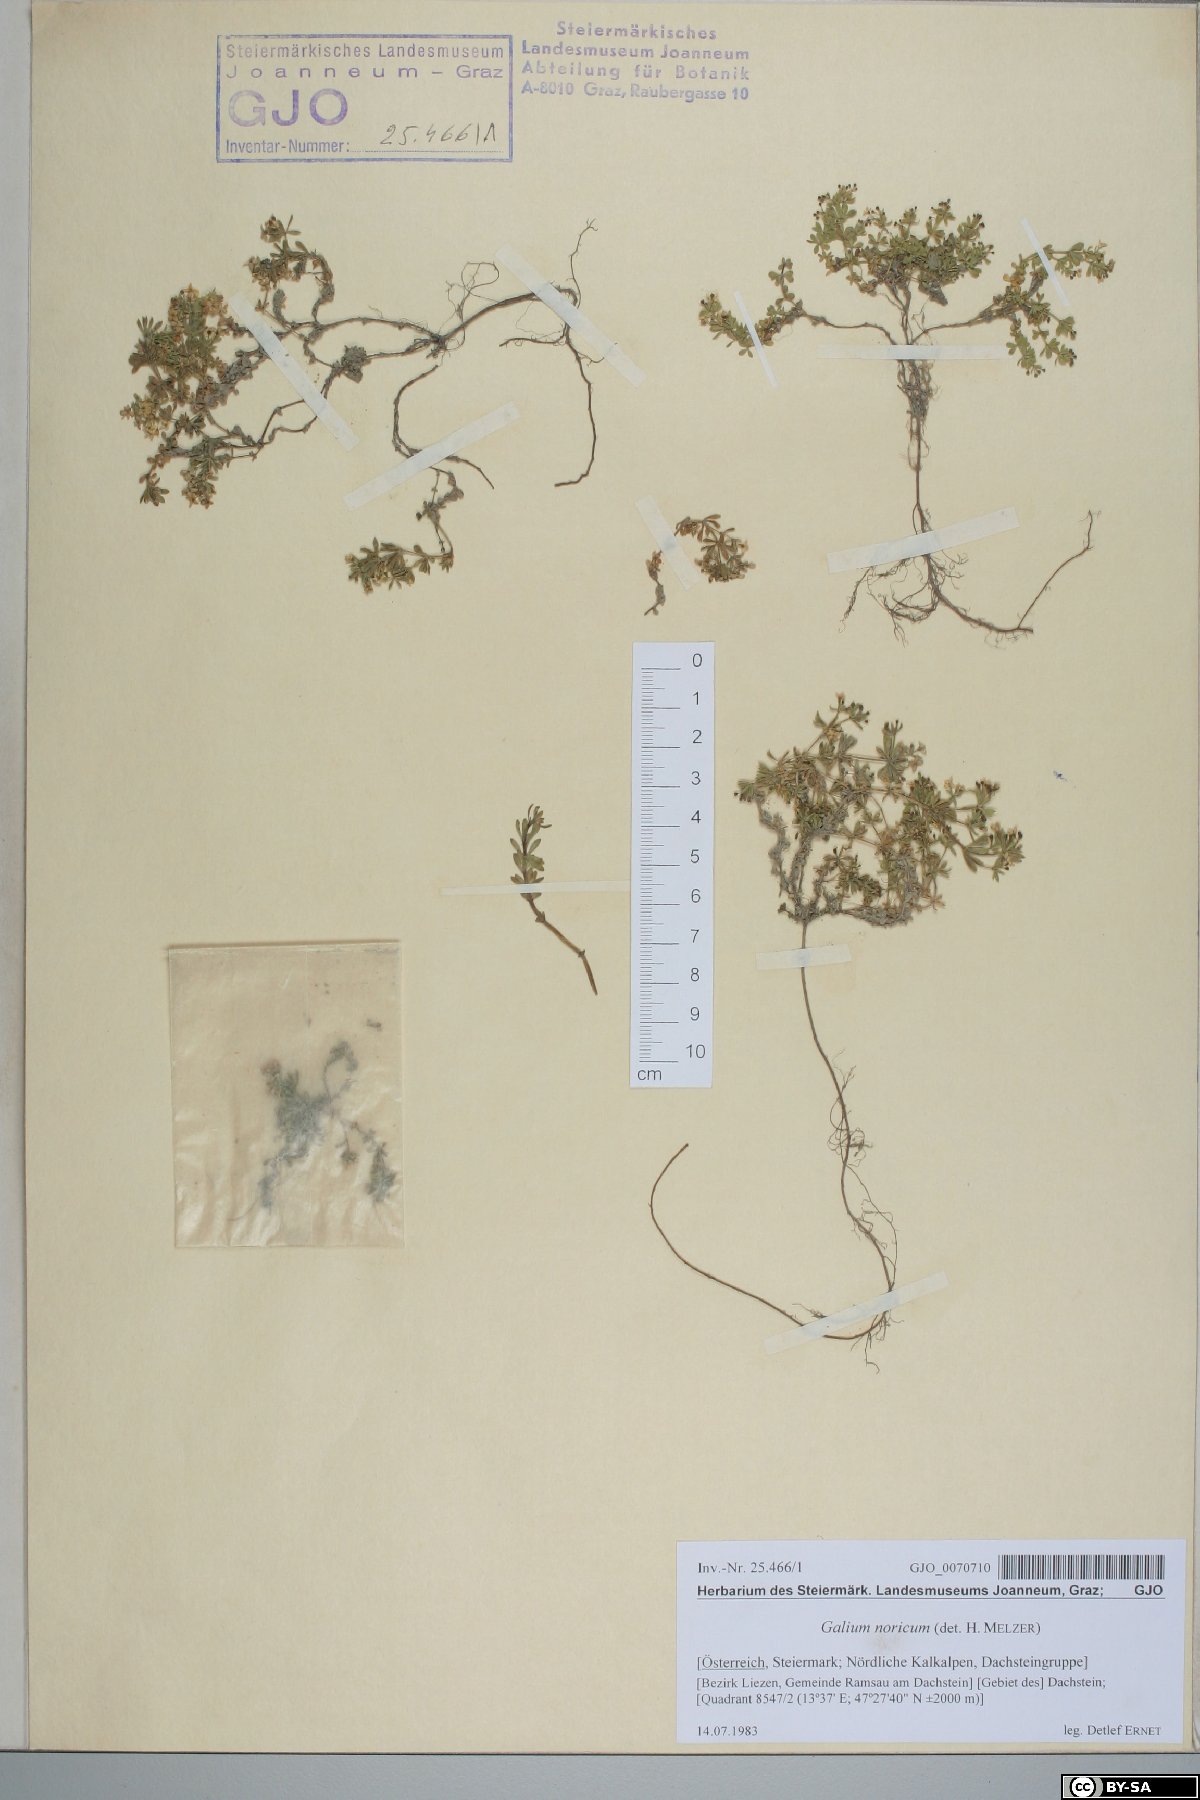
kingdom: Plantae
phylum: Tracheophyta
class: Magnoliopsida
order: Gentianales
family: Rubiaceae
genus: Galium
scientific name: Galium noricum
